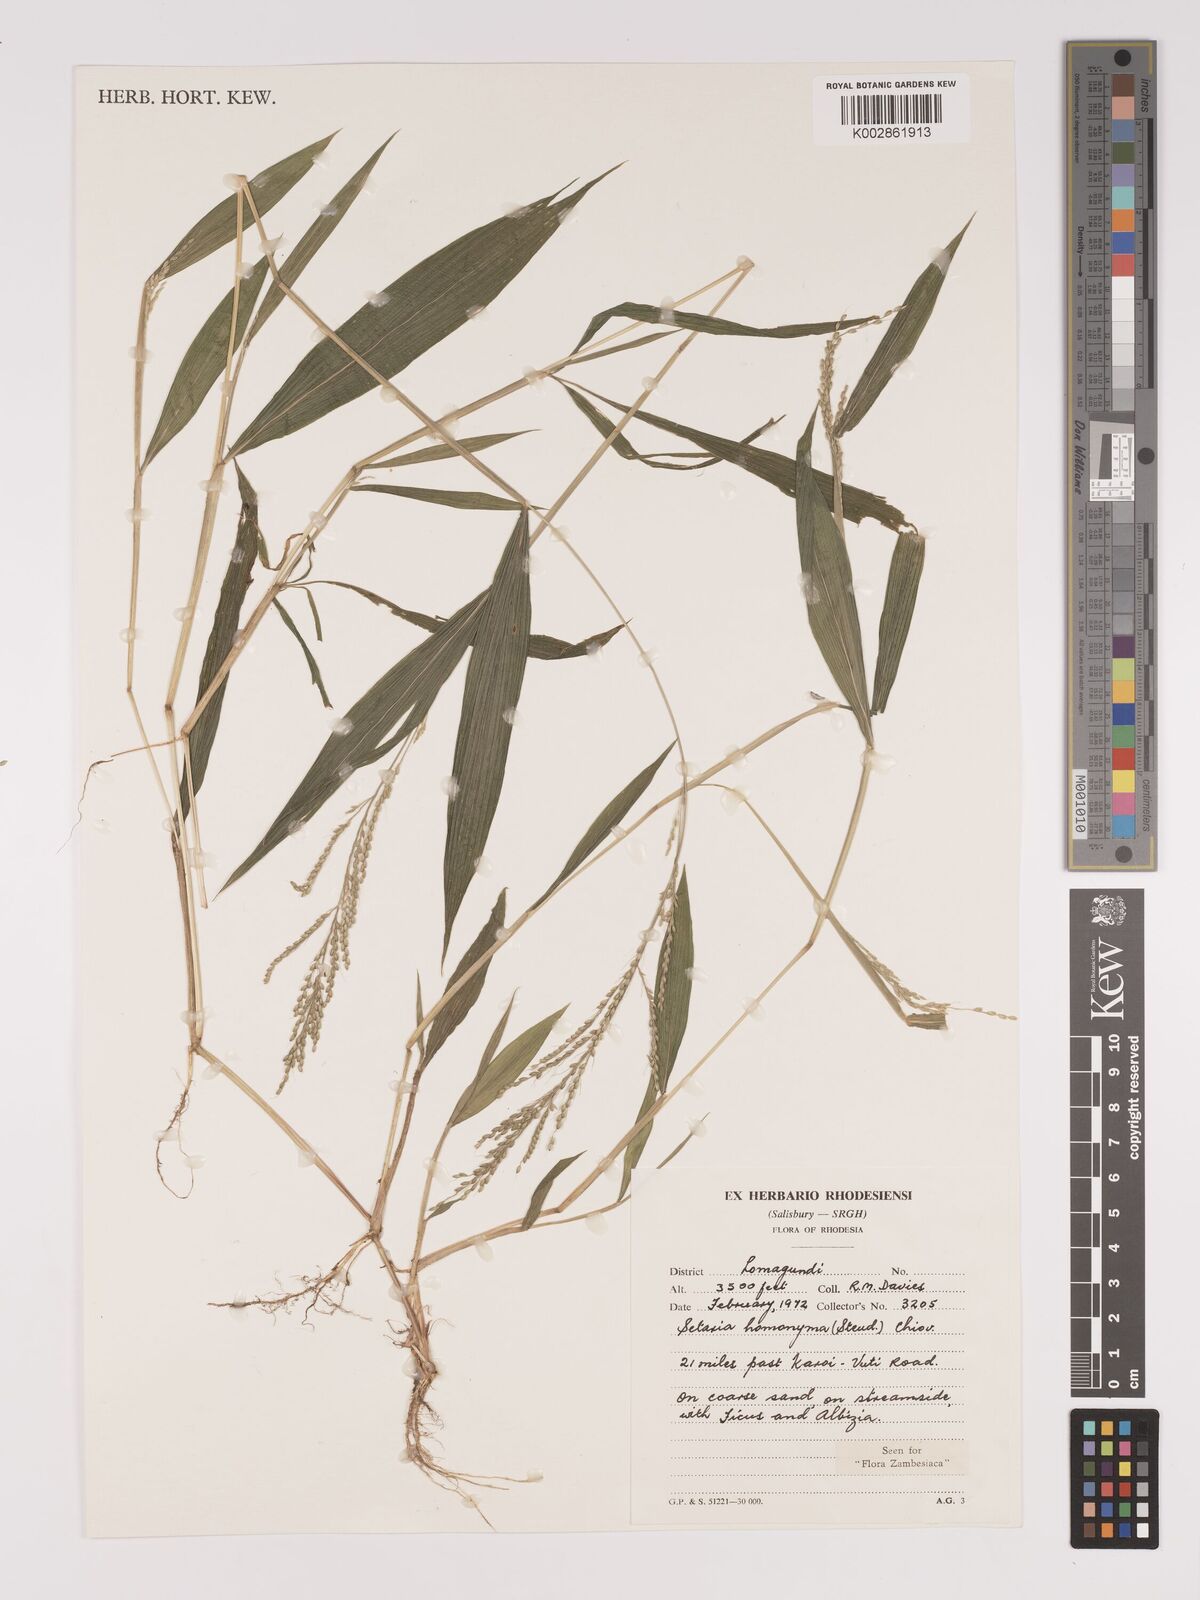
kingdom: Plantae
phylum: Tracheophyta
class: Liliopsida
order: Poales
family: Poaceae
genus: Setaria
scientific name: Setaria homonyma
